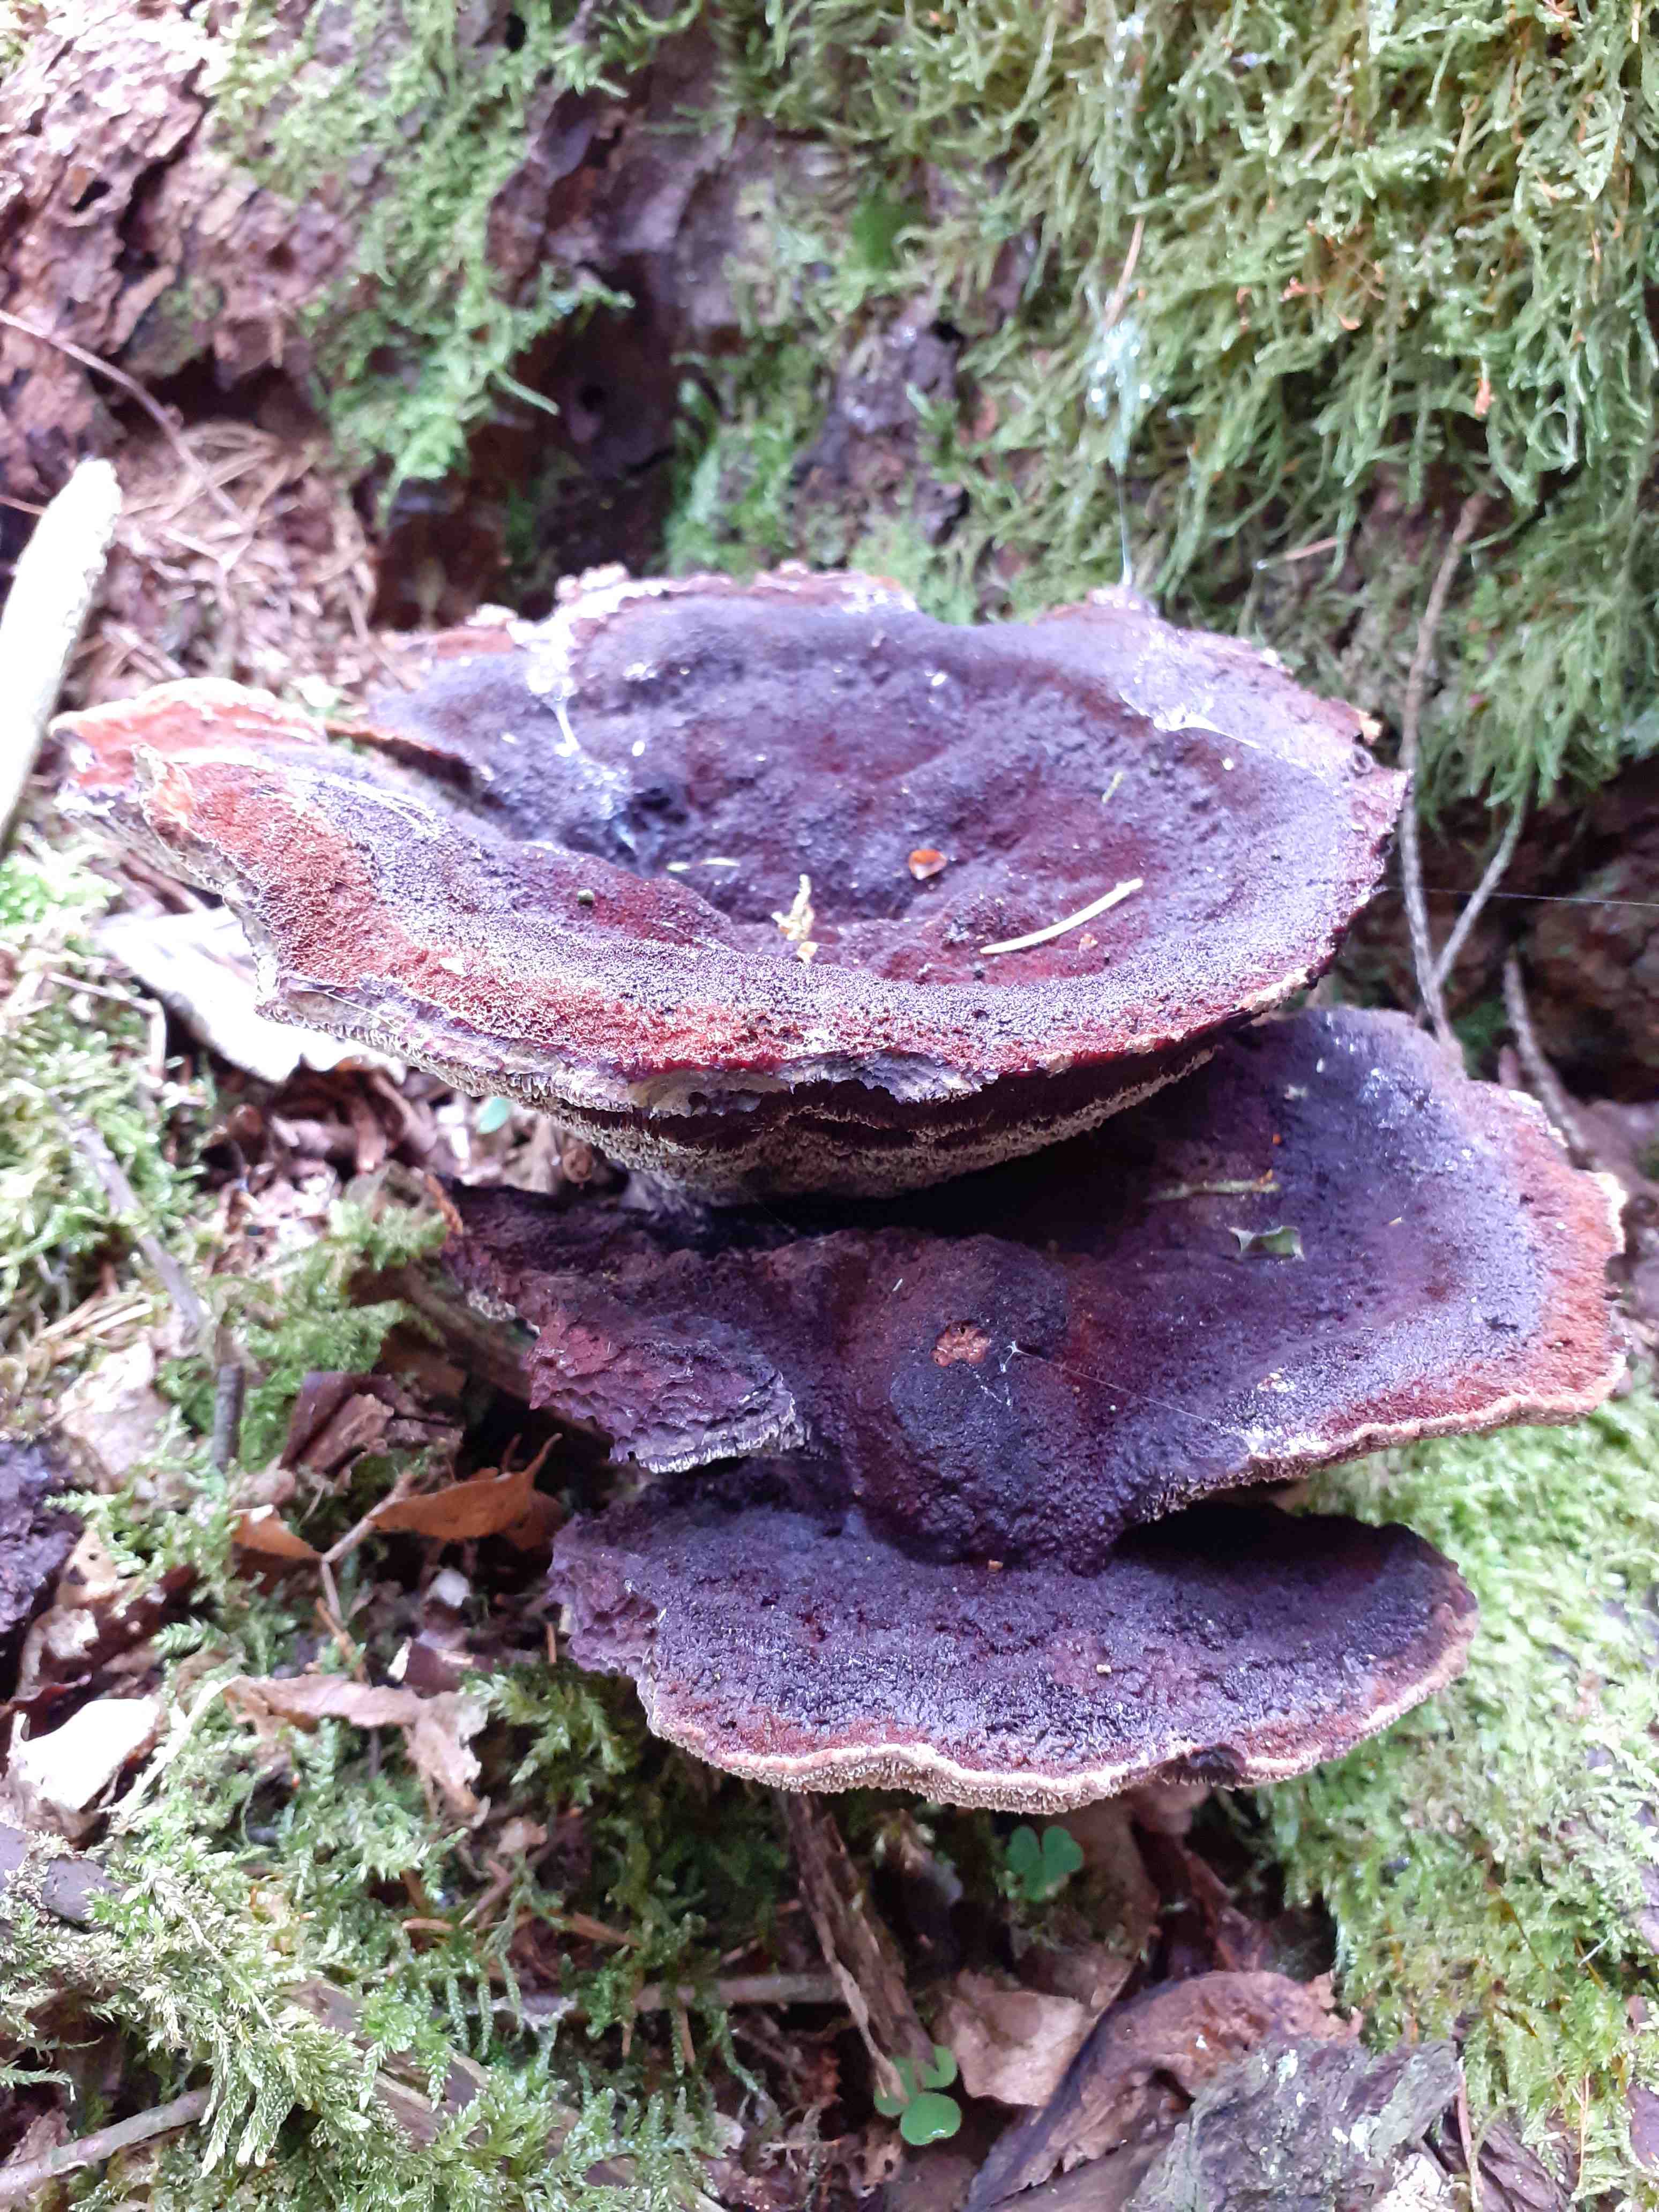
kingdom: Fungi
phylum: Basidiomycota
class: Agaricomycetes
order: Polyporales
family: Laetiporaceae
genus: Phaeolus
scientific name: Phaeolus schweinitzii
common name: brunporesvamp
